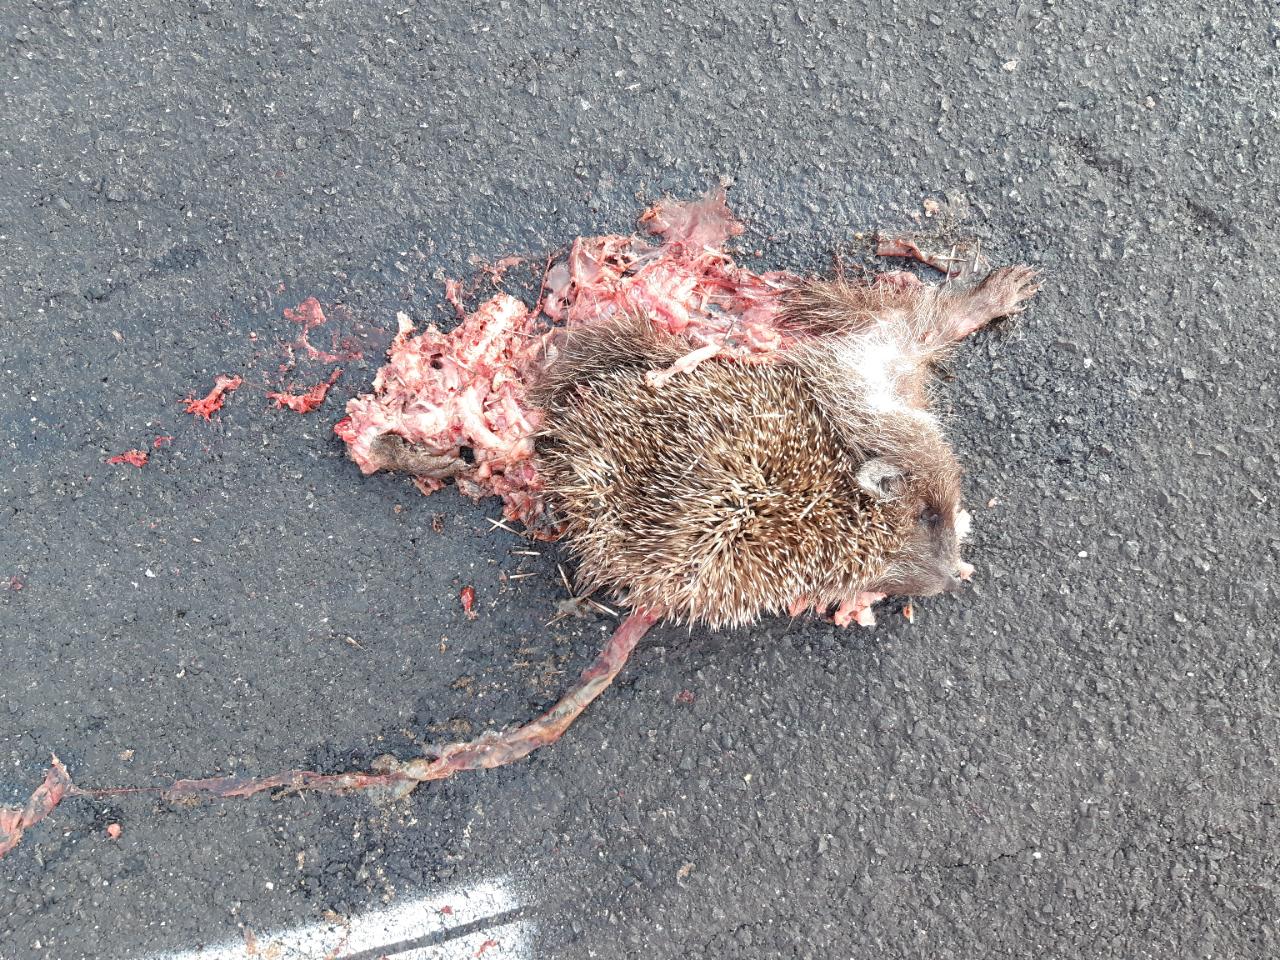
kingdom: Animalia
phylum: Chordata
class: Mammalia
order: Erinaceomorpha
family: Erinaceidae
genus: Erinaceus
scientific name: Erinaceus
